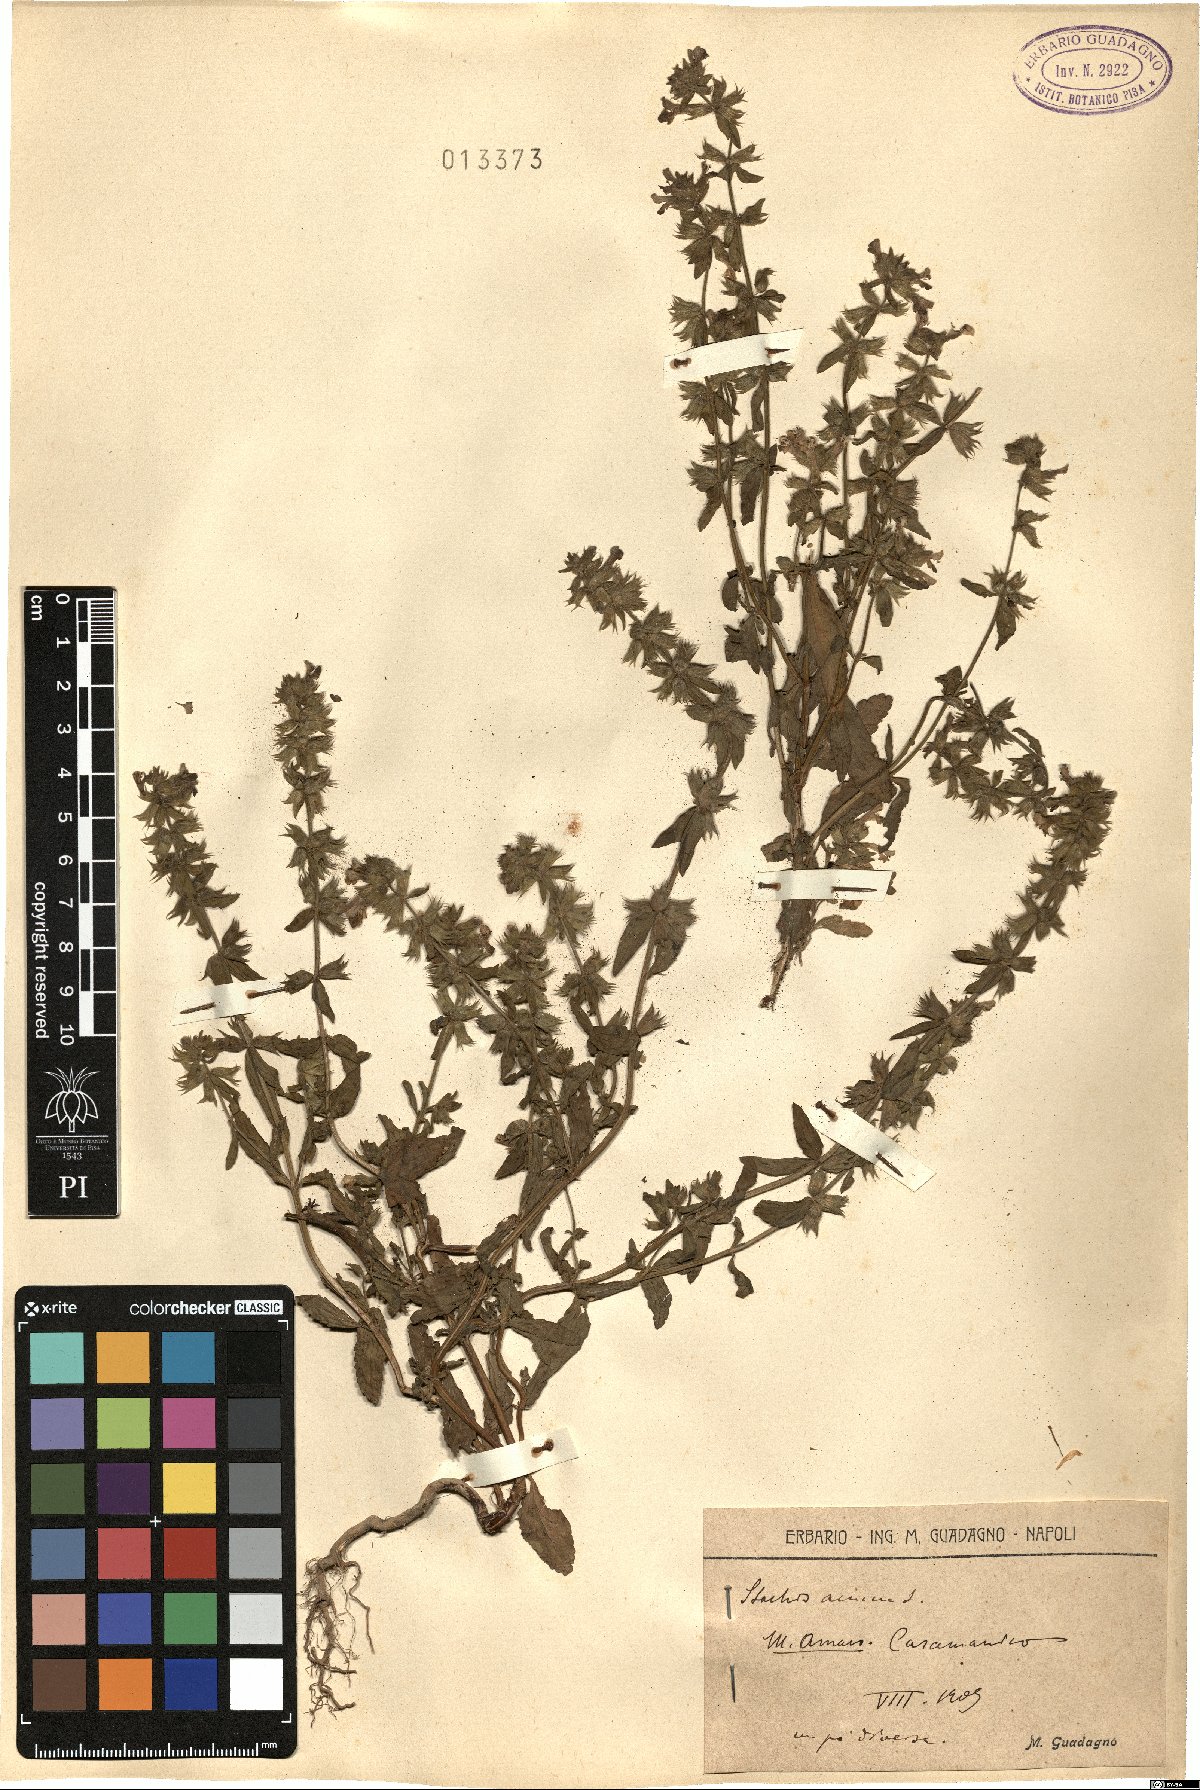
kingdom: Plantae
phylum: Tracheophyta
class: Magnoliopsida
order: Lamiales
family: Lamiaceae
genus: Stachys
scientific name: Stachys annua
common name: Annual yellow-woundwort
